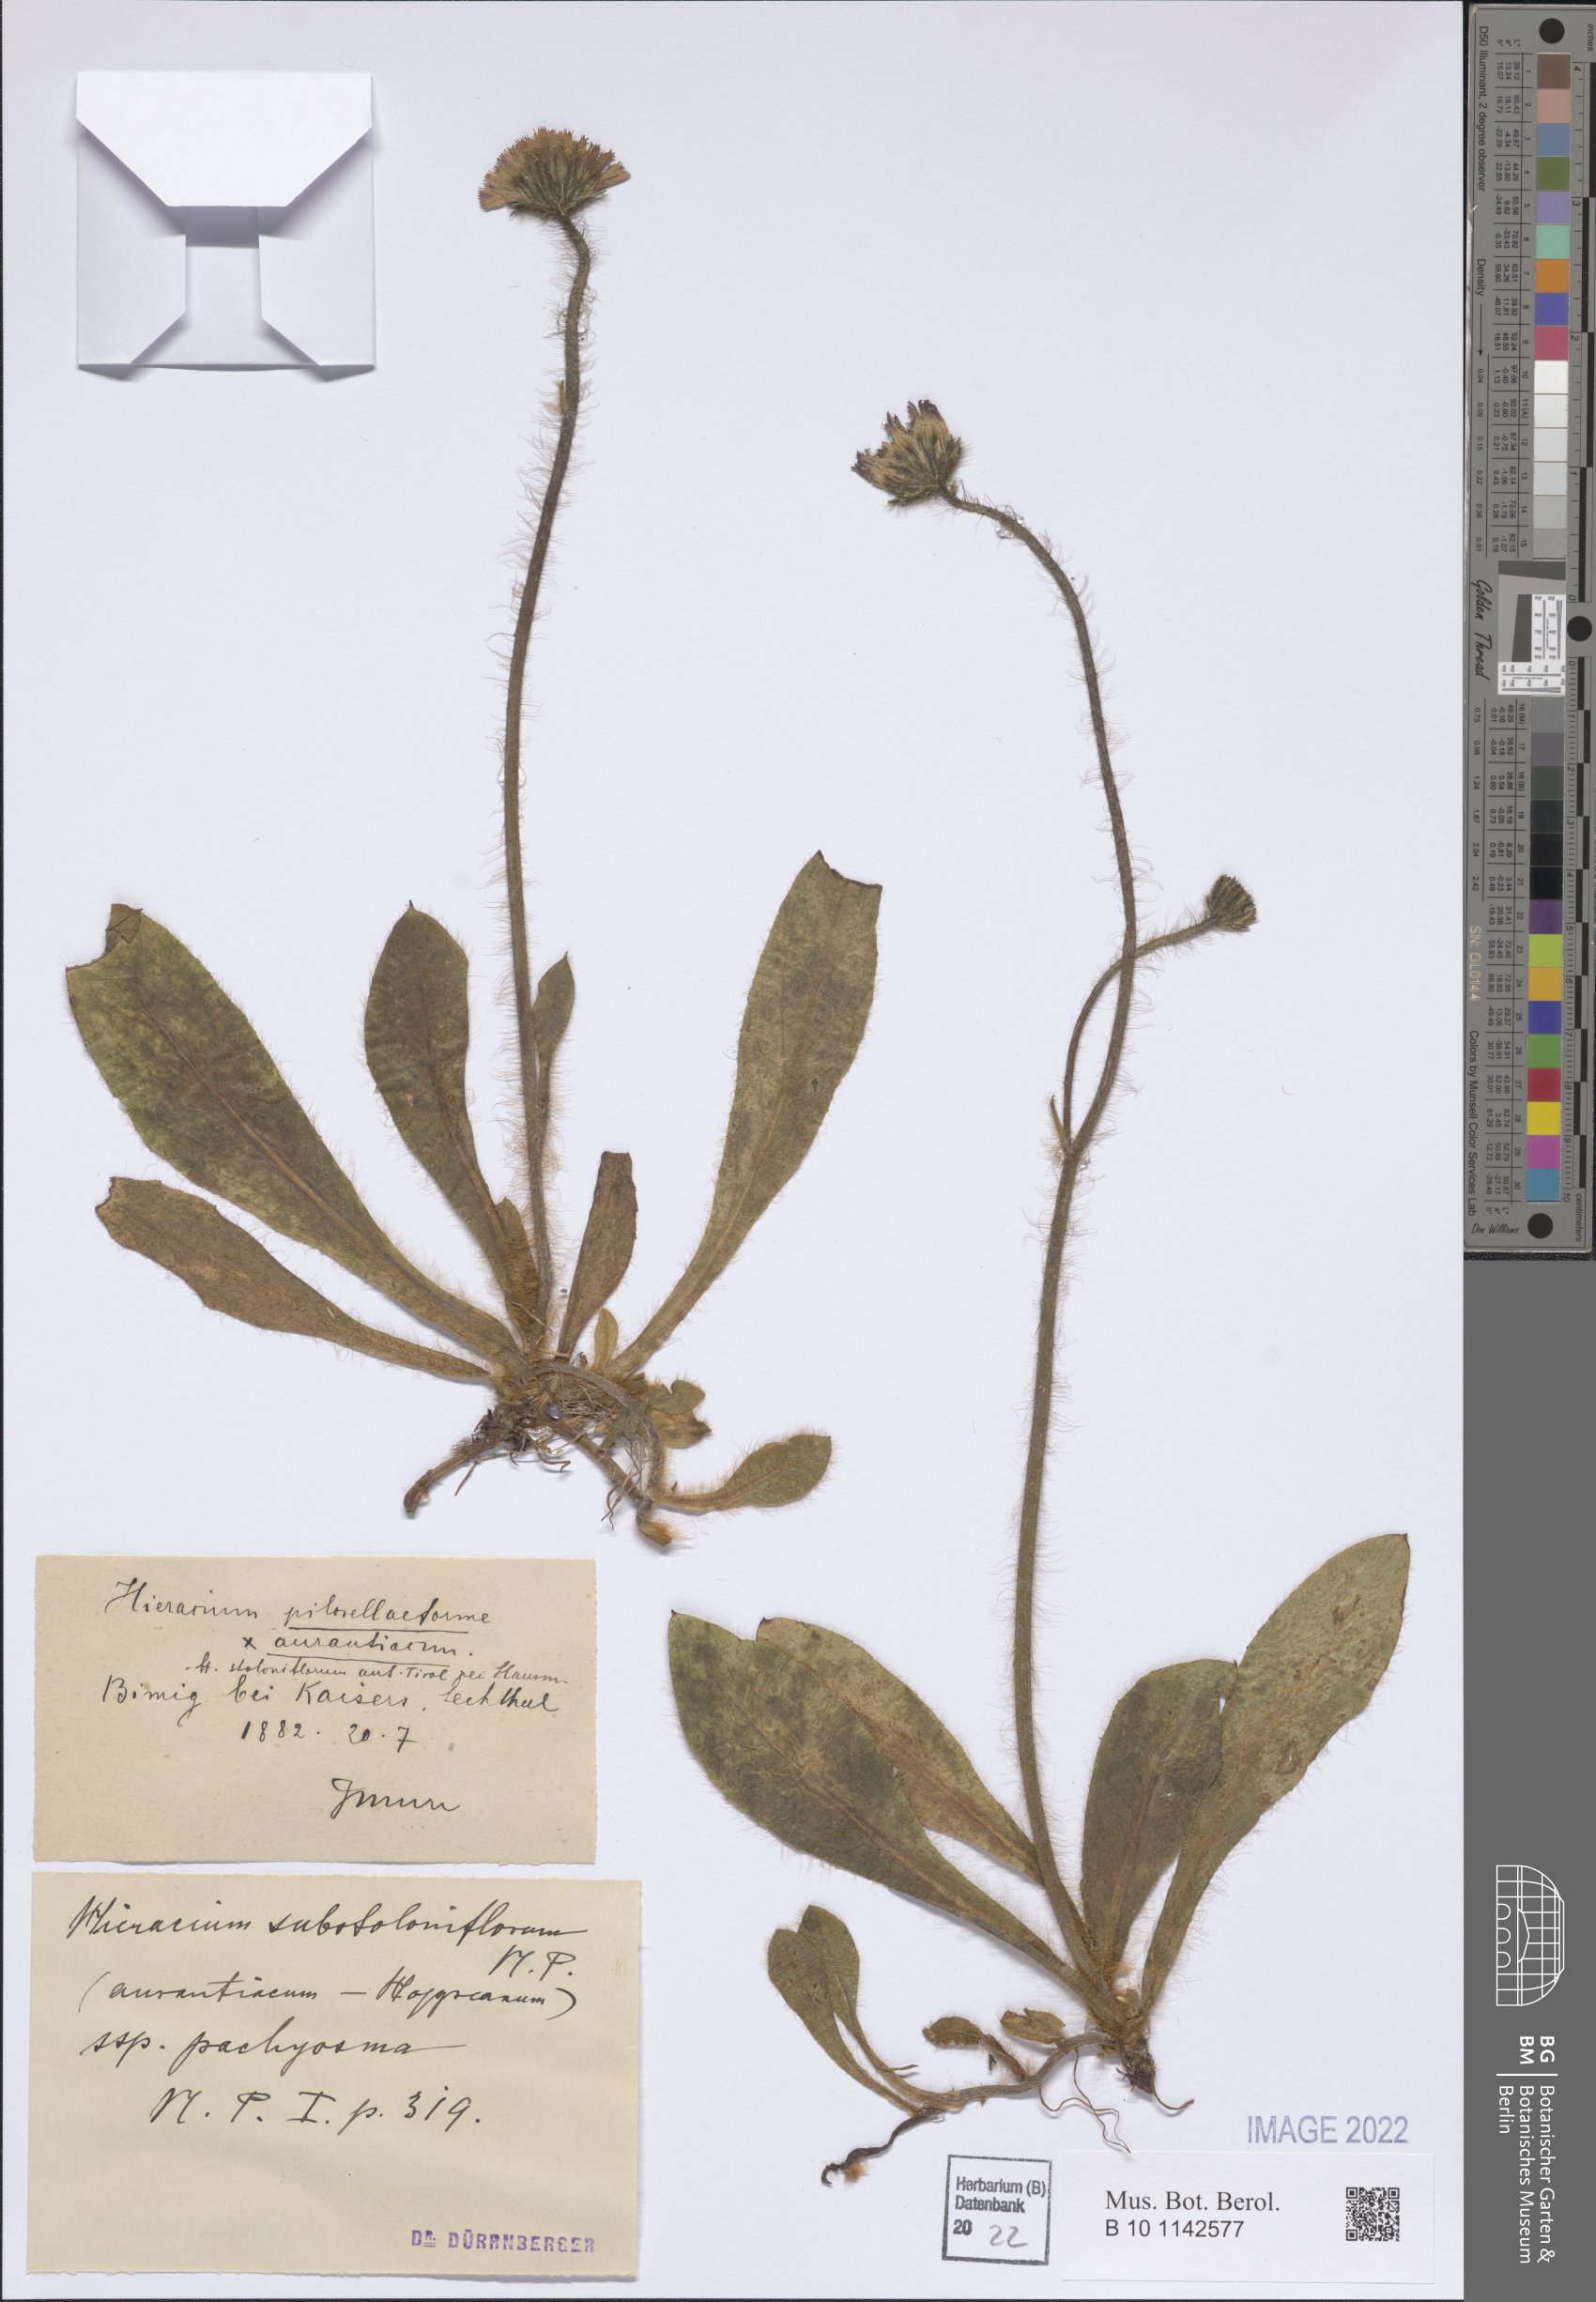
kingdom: Plantae
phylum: Tracheophyta
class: Magnoliopsida
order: Asterales
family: Asteraceae
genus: Pilosella
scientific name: Pilosella substoloniflora
